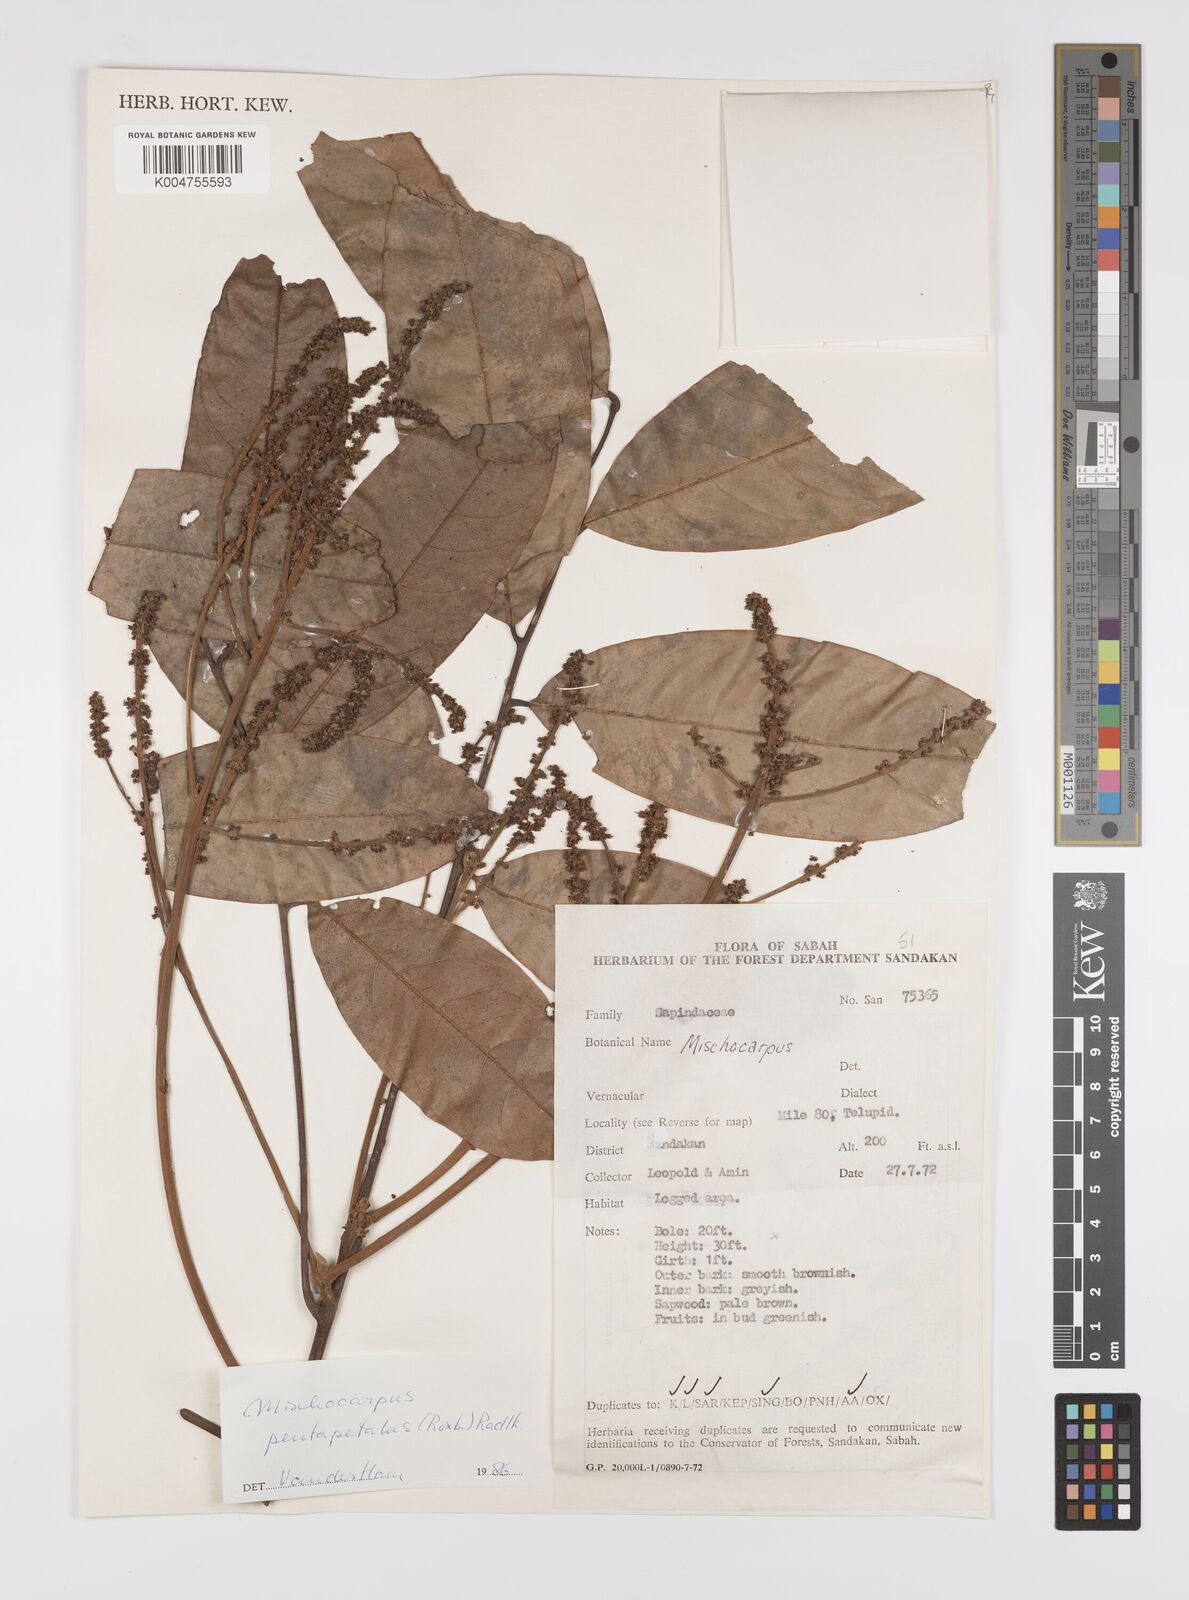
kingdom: Plantae
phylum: Tracheophyta
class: Magnoliopsida
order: Sapindales
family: Sapindaceae
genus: Mischocarpus
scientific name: Mischocarpus pentapetalus
